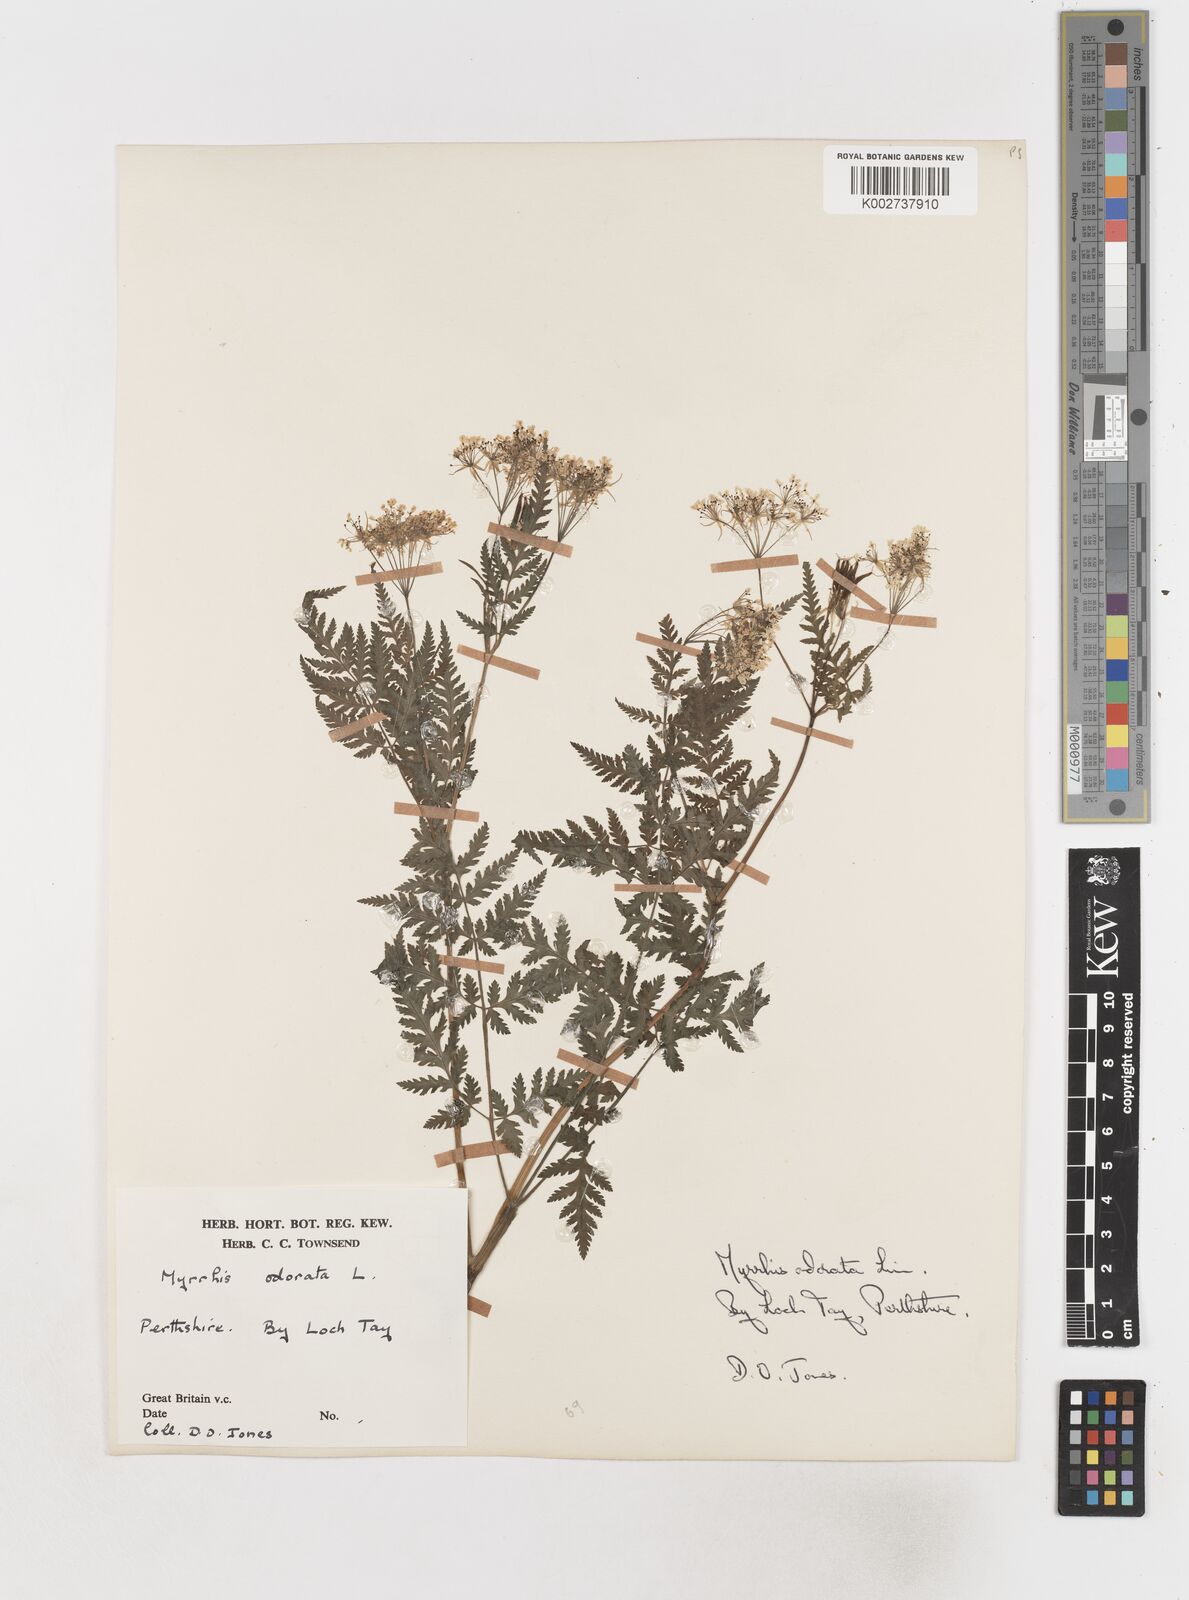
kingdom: Plantae
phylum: Tracheophyta
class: Magnoliopsida
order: Apiales
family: Apiaceae
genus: Myrrhis
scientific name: Myrrhis odorata
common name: Sweet cicely
